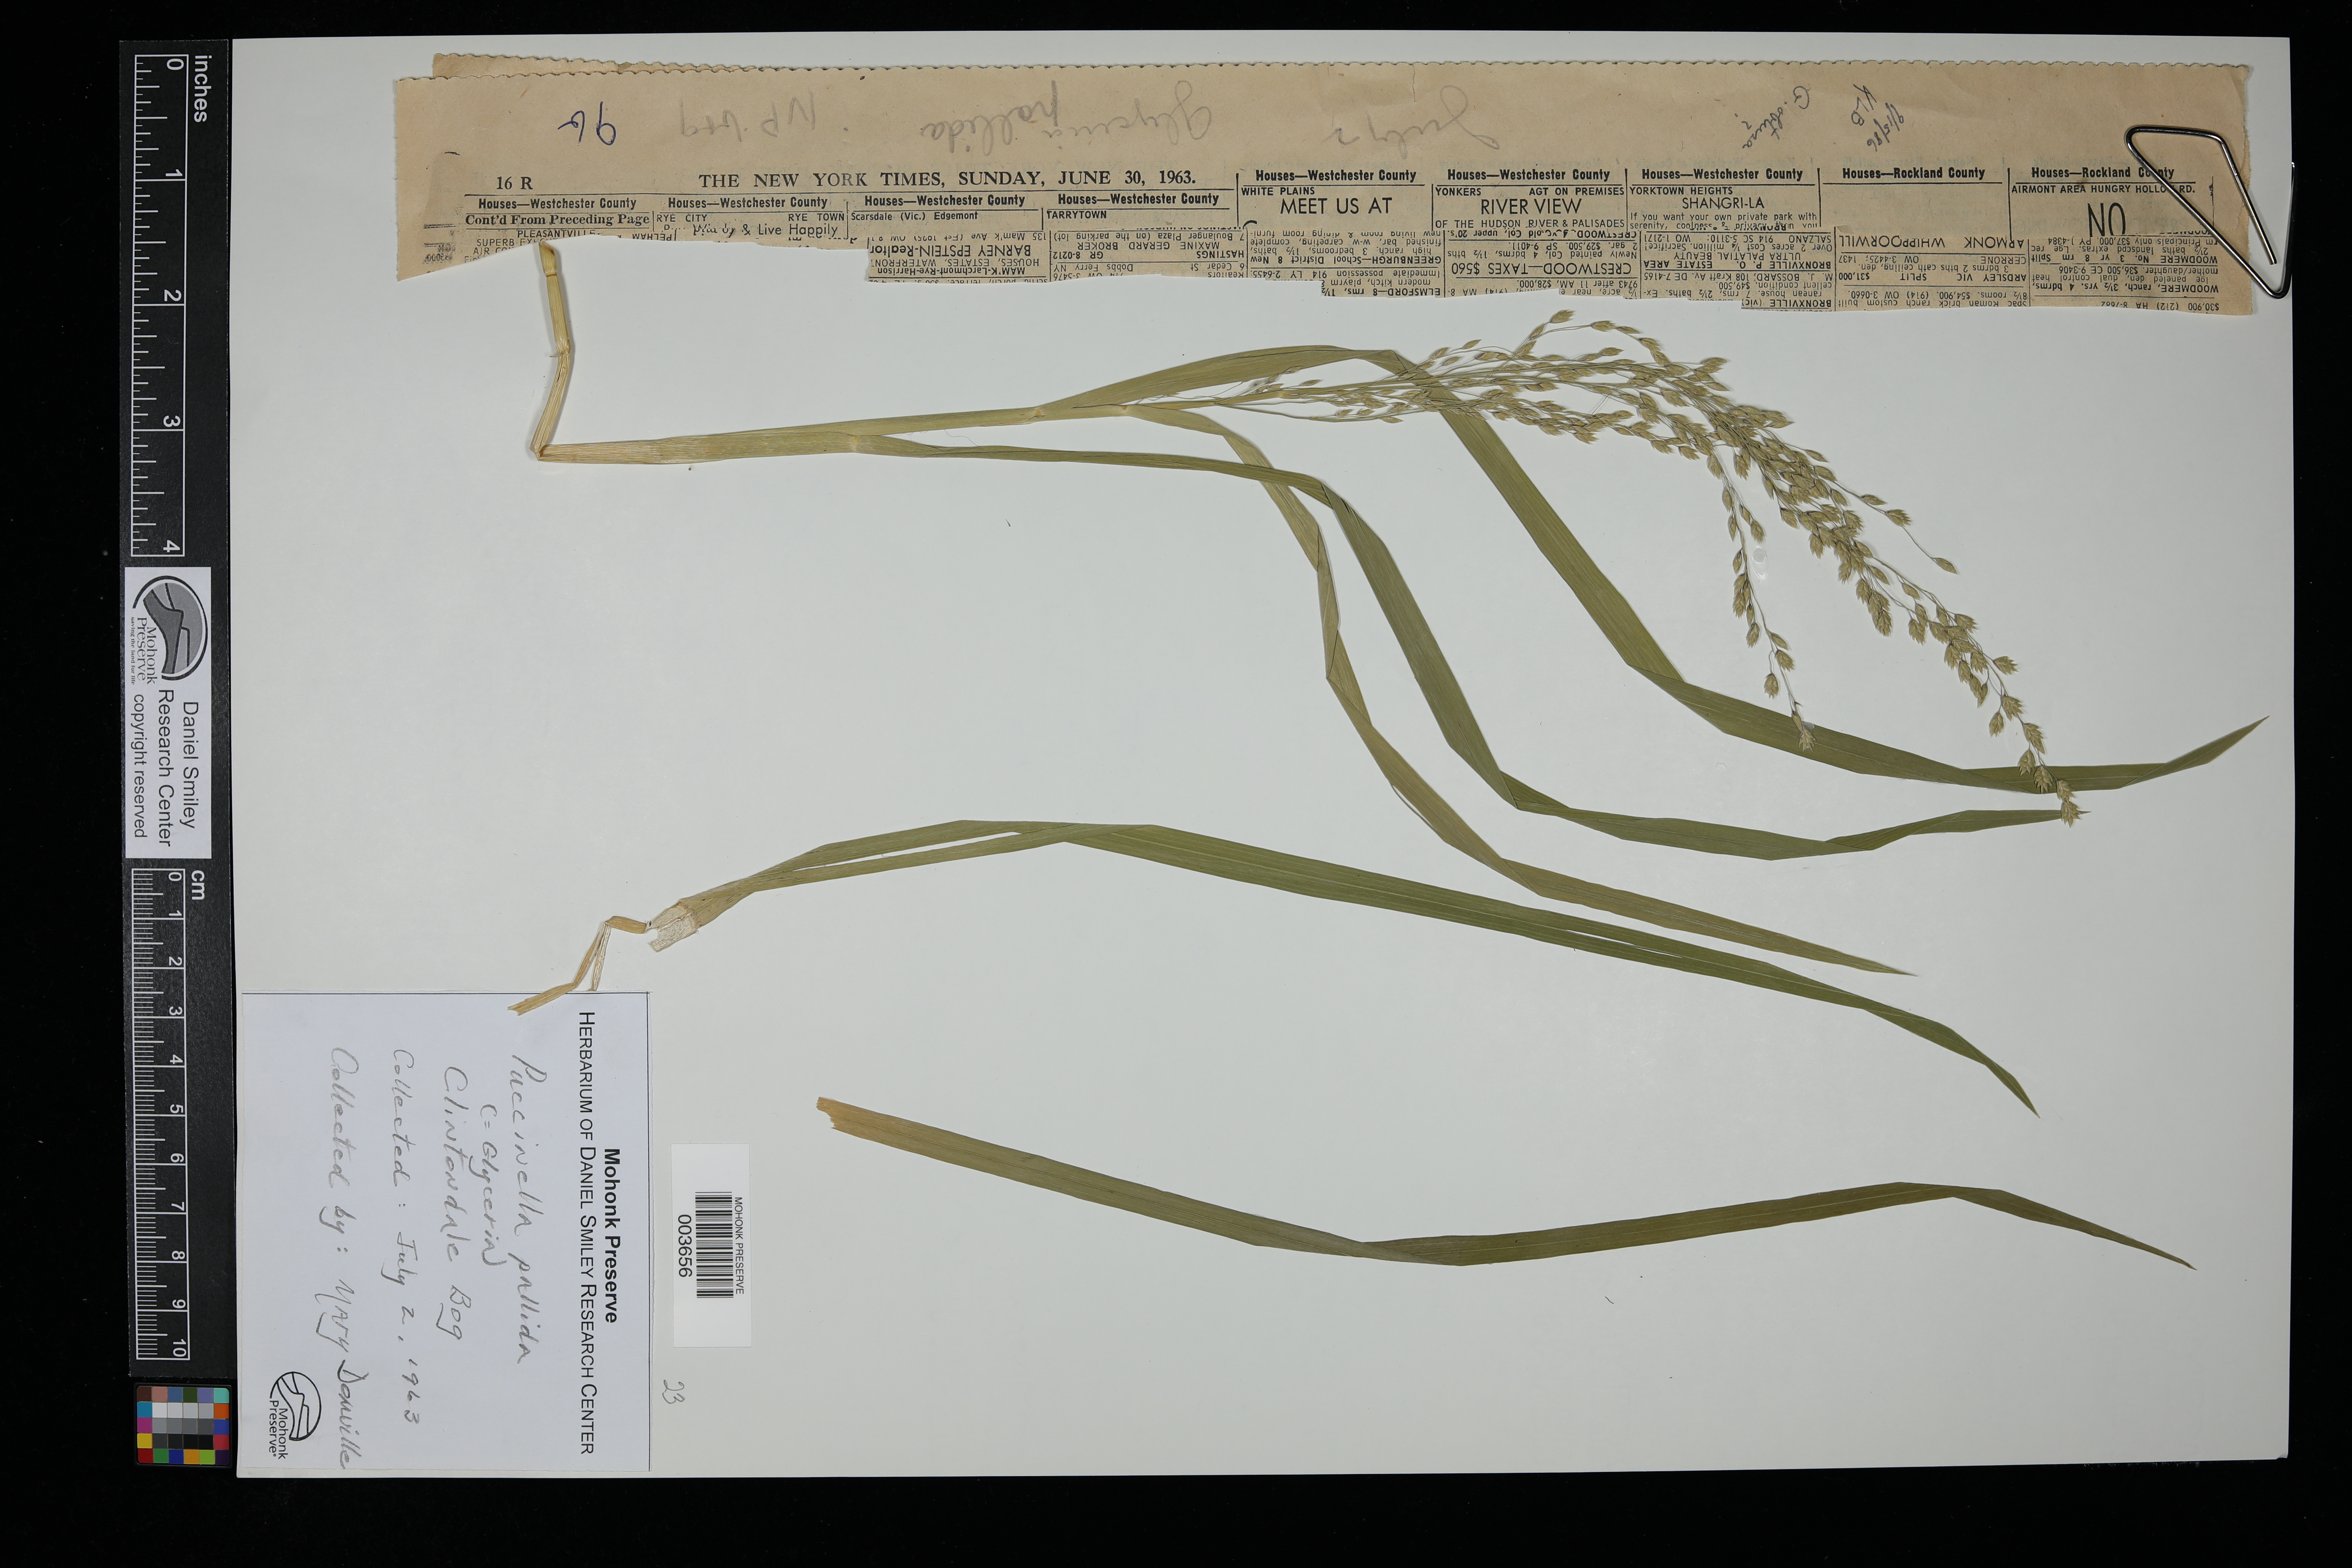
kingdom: Plantae
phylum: Tracheophyta
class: Liliopsida
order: Poales
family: Poaceae
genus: Torreyochloa
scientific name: Torreyochloa pallida
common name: Pale false mannagrass
